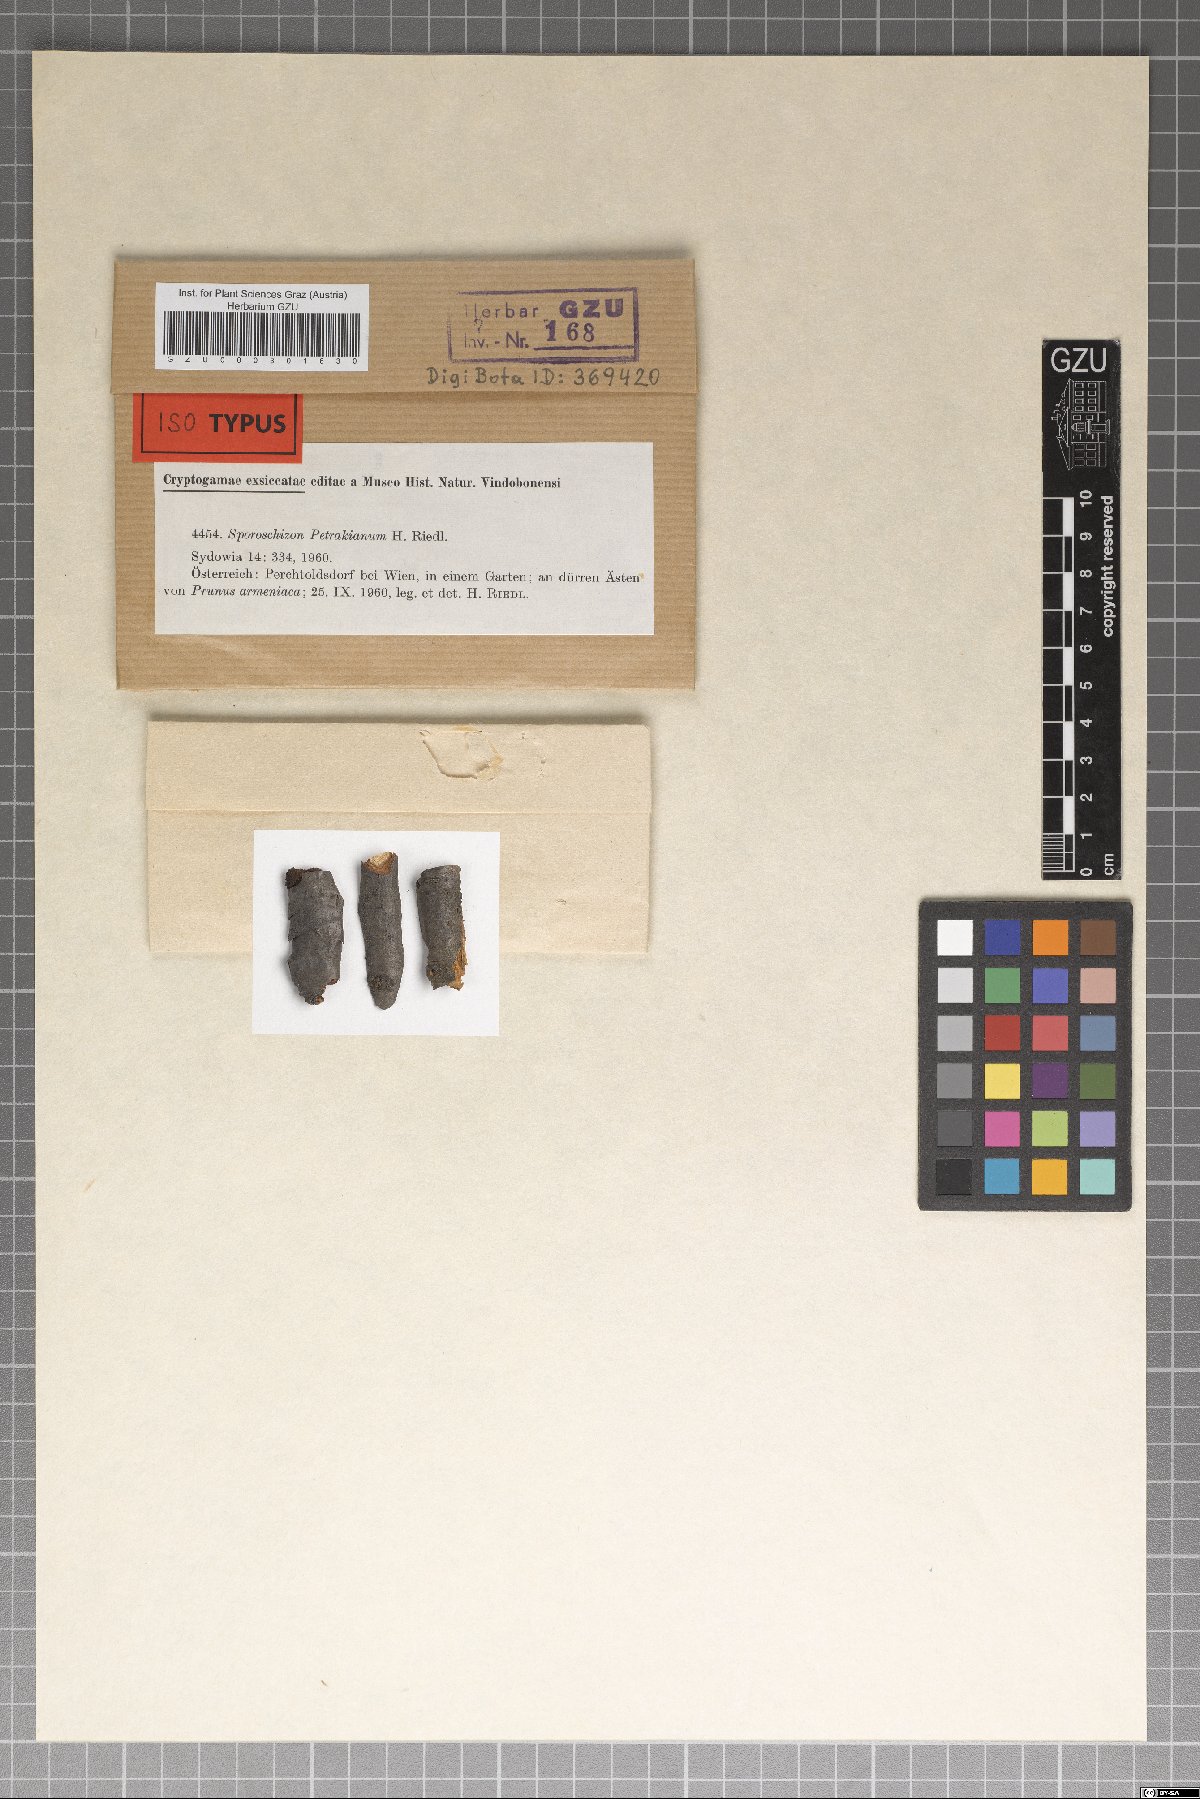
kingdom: Fungi
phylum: Ascomycota
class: Dothideomycetes
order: Pleosporales
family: Naetrocymbaceae
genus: Sporoschizon
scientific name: Sporoschizon petrakianum
